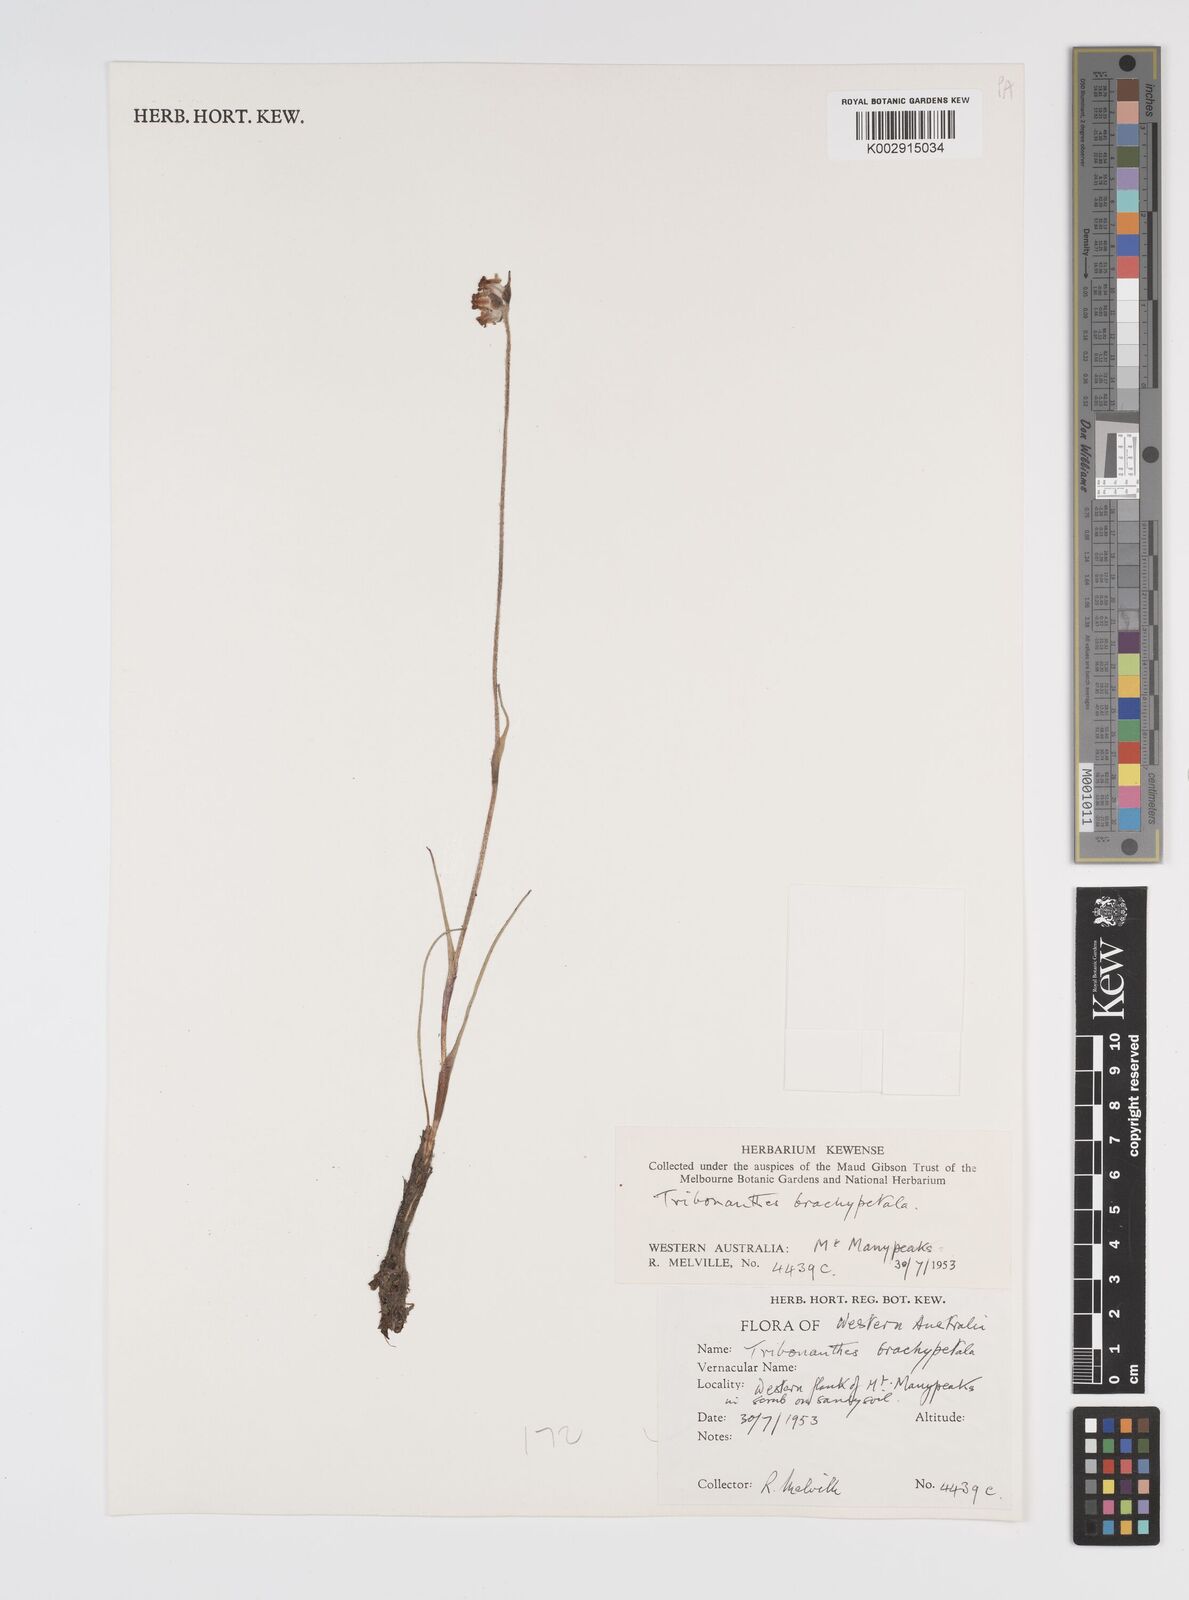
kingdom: Plantae
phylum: Tracheophyta
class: Liliopsida
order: Commelinales
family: Haemodoraceae
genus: Tribonanthes
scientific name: Tribonanthes brachypetala
